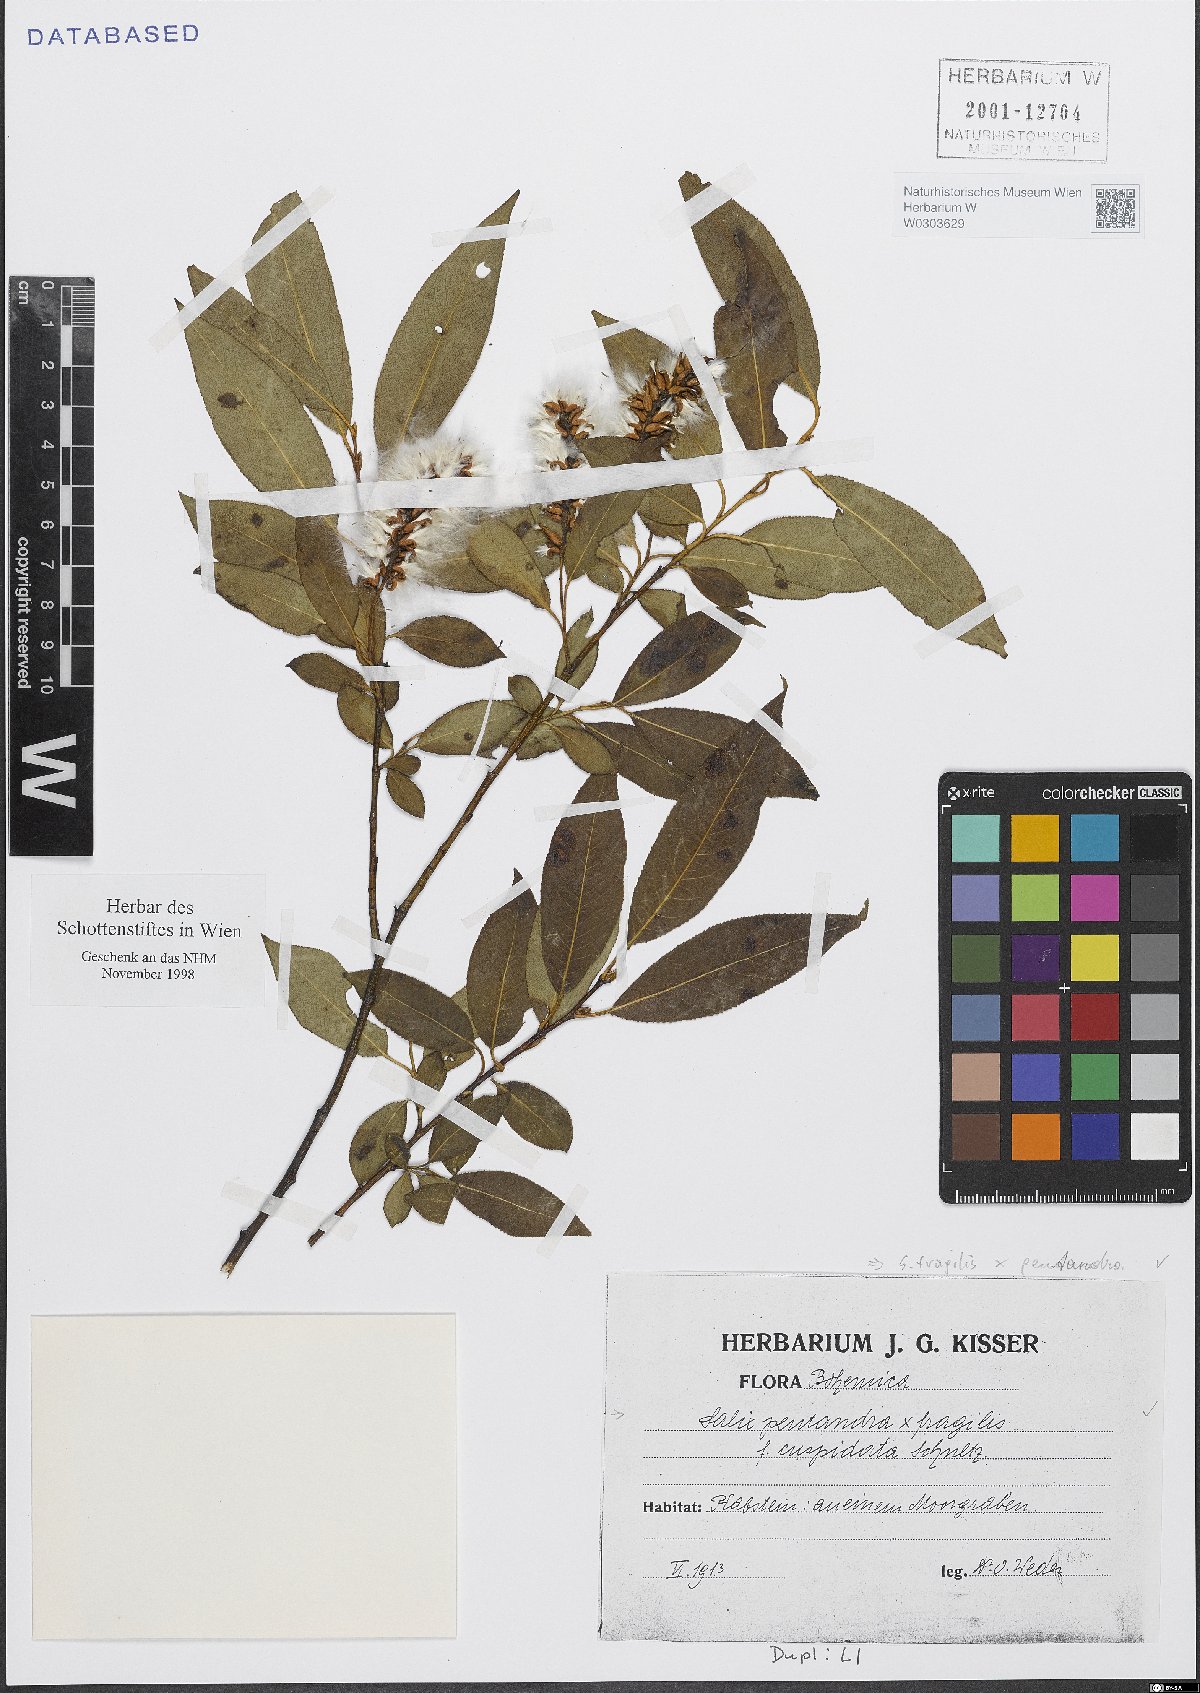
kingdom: Plantae
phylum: Tracheophyta
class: Magnoliopsida
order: Malpighiales
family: Salicaceae
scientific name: Salicaceae
